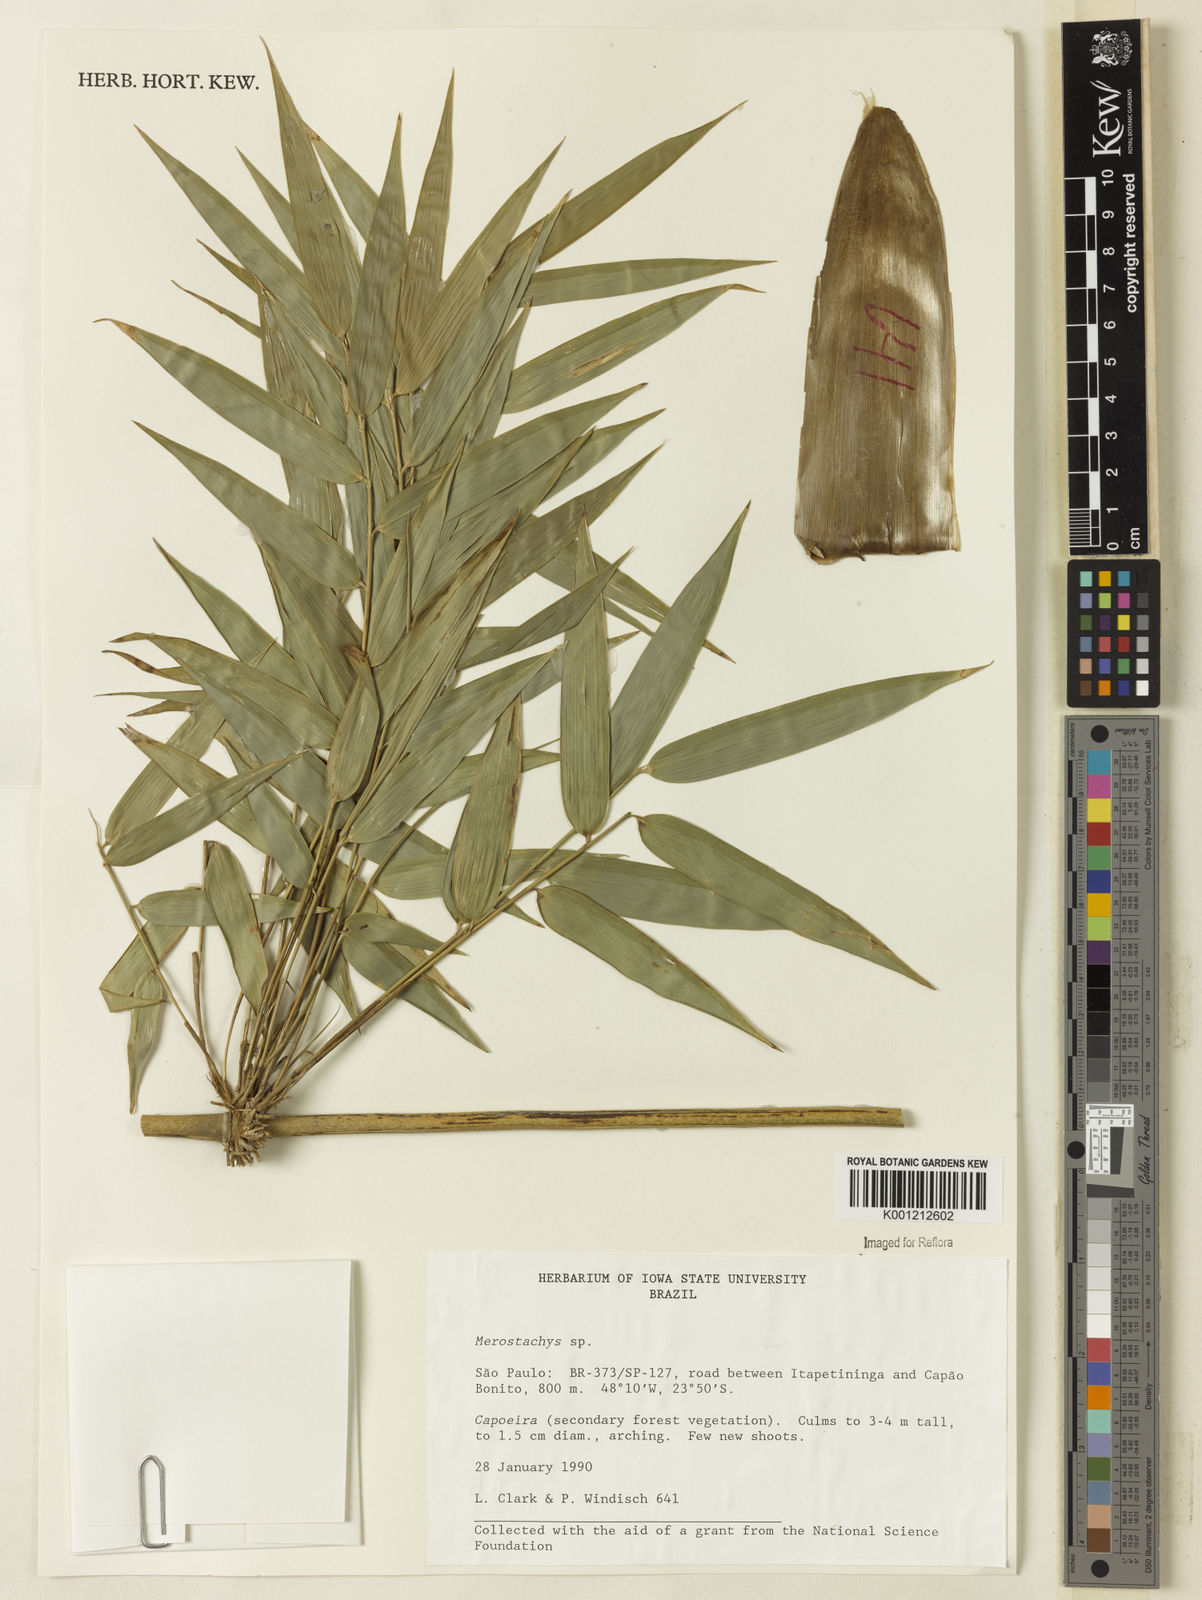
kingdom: Plantae
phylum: Tracheophyta
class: Liliopsida
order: Poales
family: Poaceae
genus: Merostachys
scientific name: Merostachys
